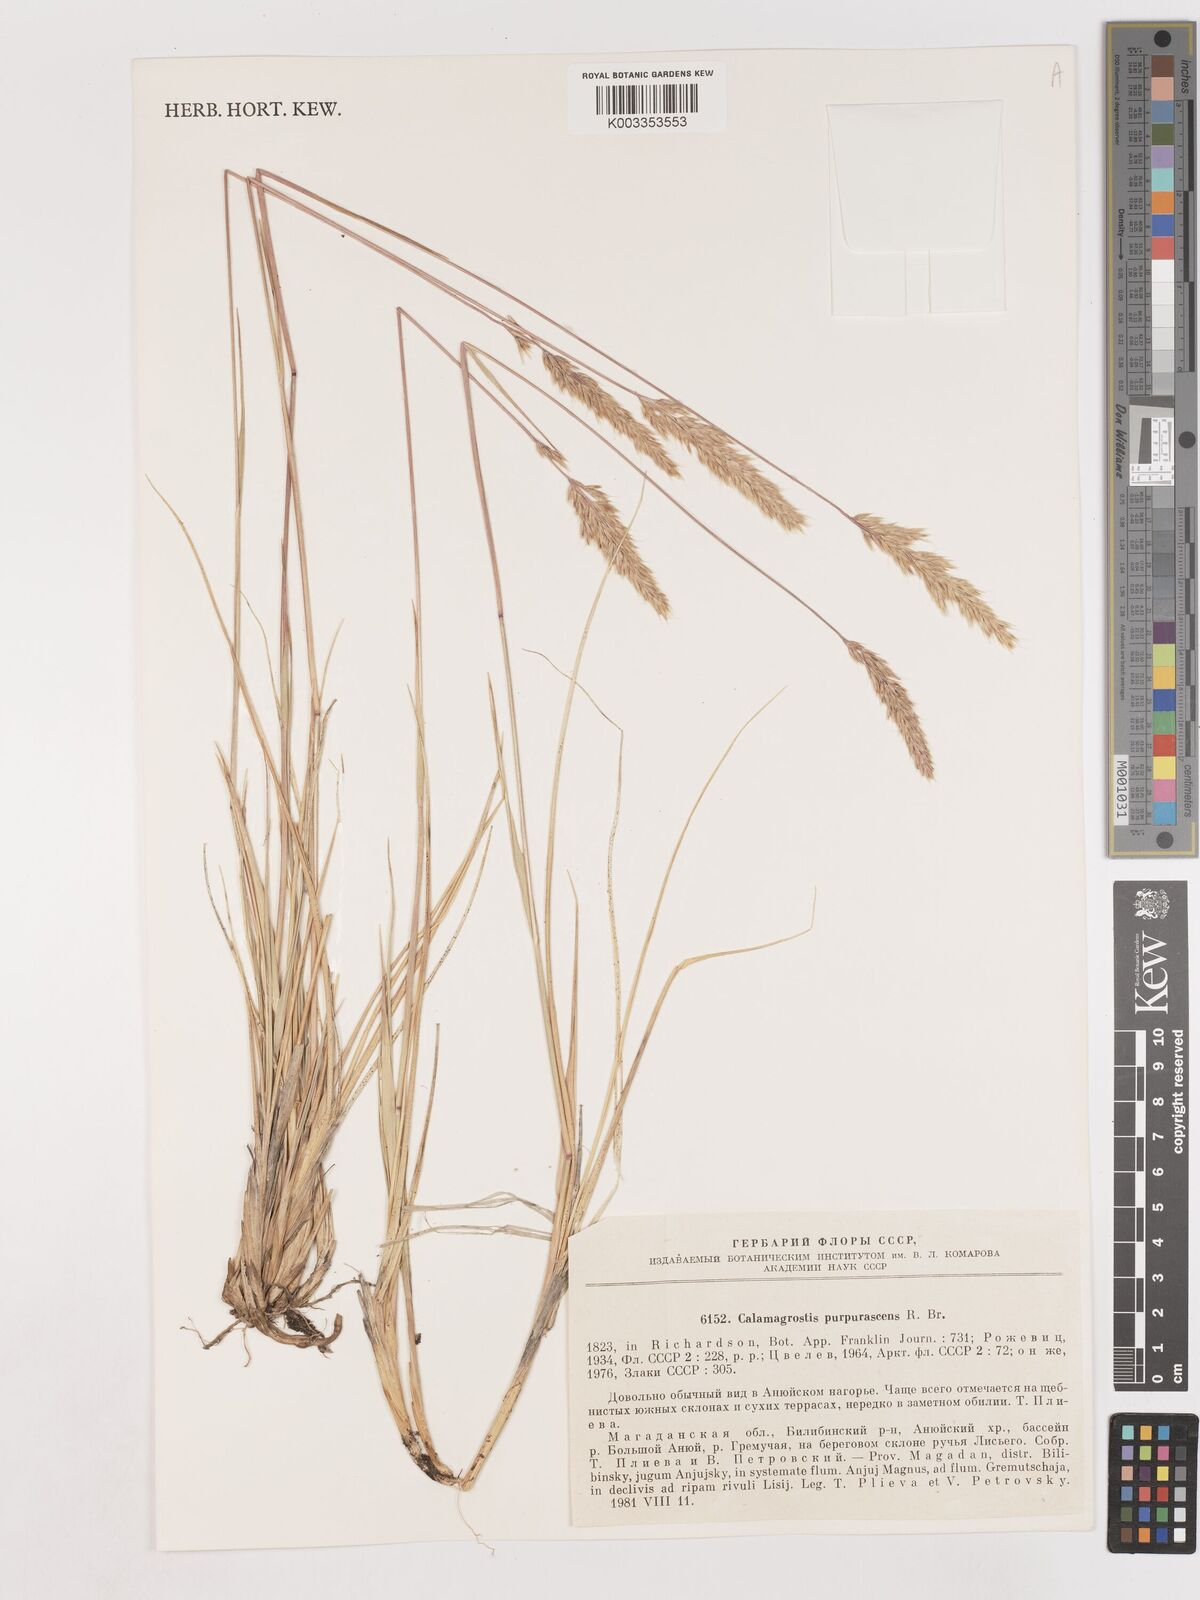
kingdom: Plantae
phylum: Tracheophyta
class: Liliopsida
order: Poales
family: Poaceae
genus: Calamagrostis
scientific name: Calamagrostis purpurascens
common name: Purple reedgrass
